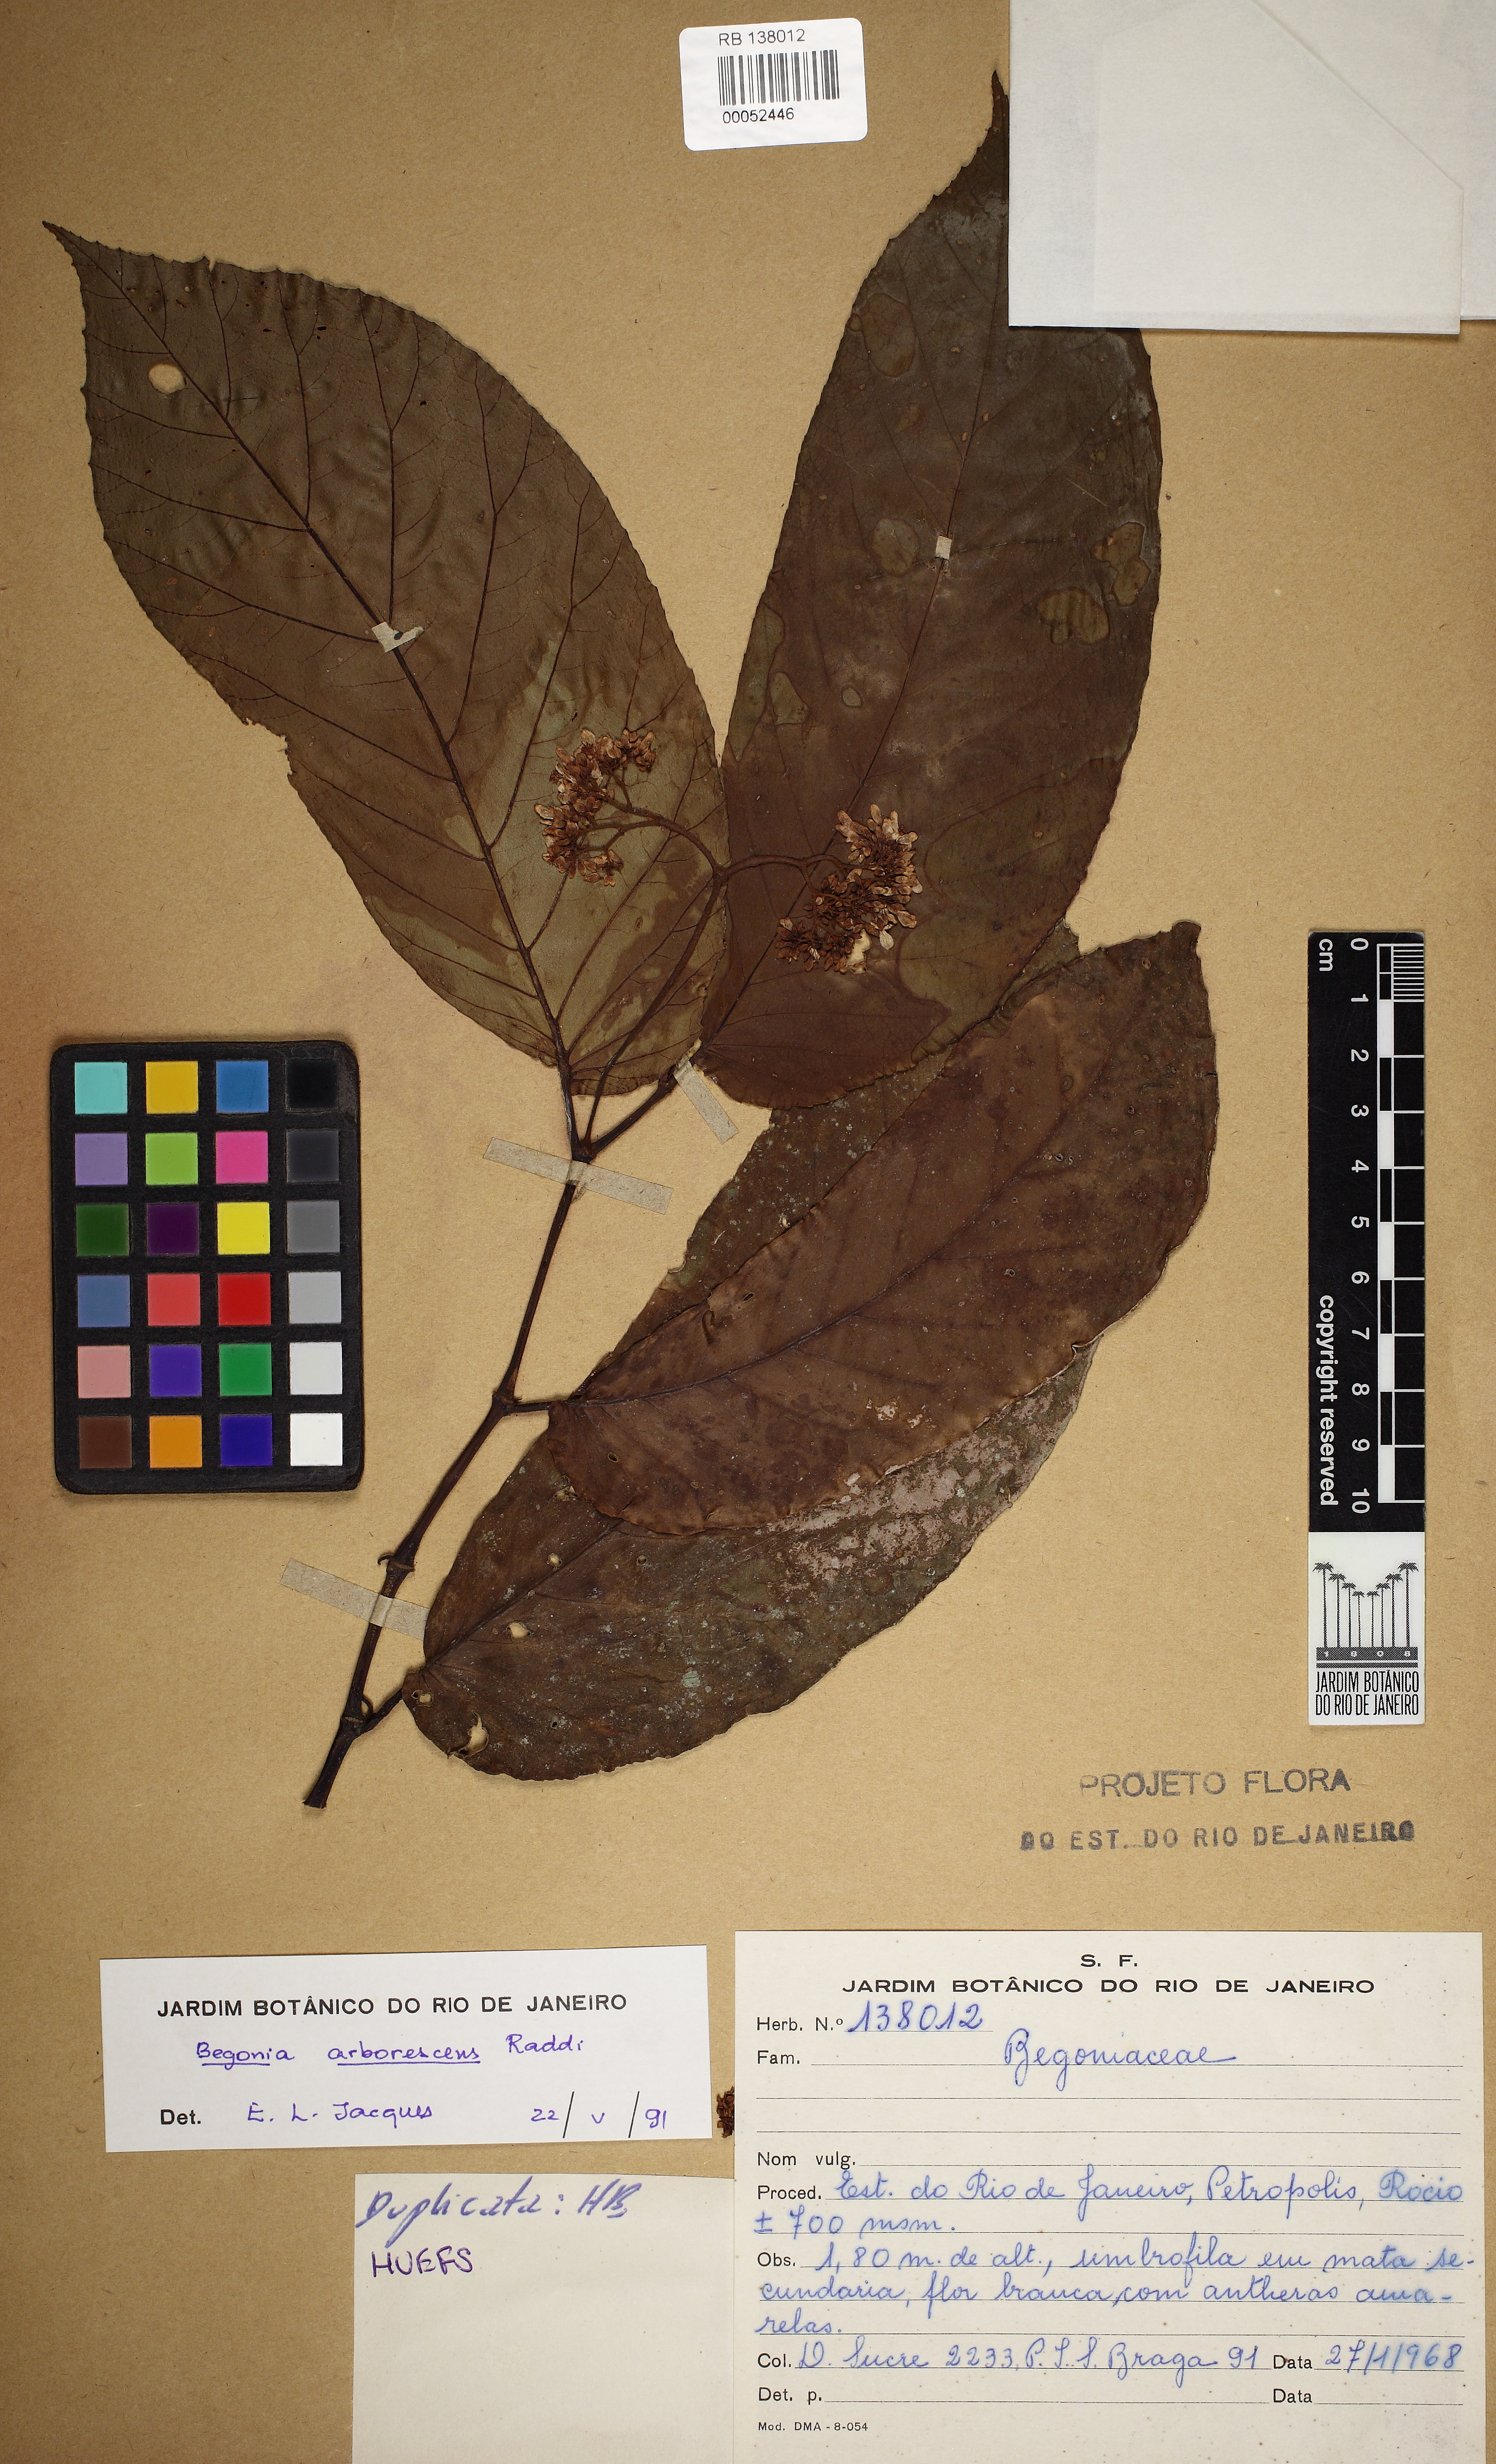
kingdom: Plantae
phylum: Tracheophyta
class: Magnoliopsida
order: Cucurbitales
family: Begoniaceae
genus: Begonia
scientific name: Begonia arborescens
